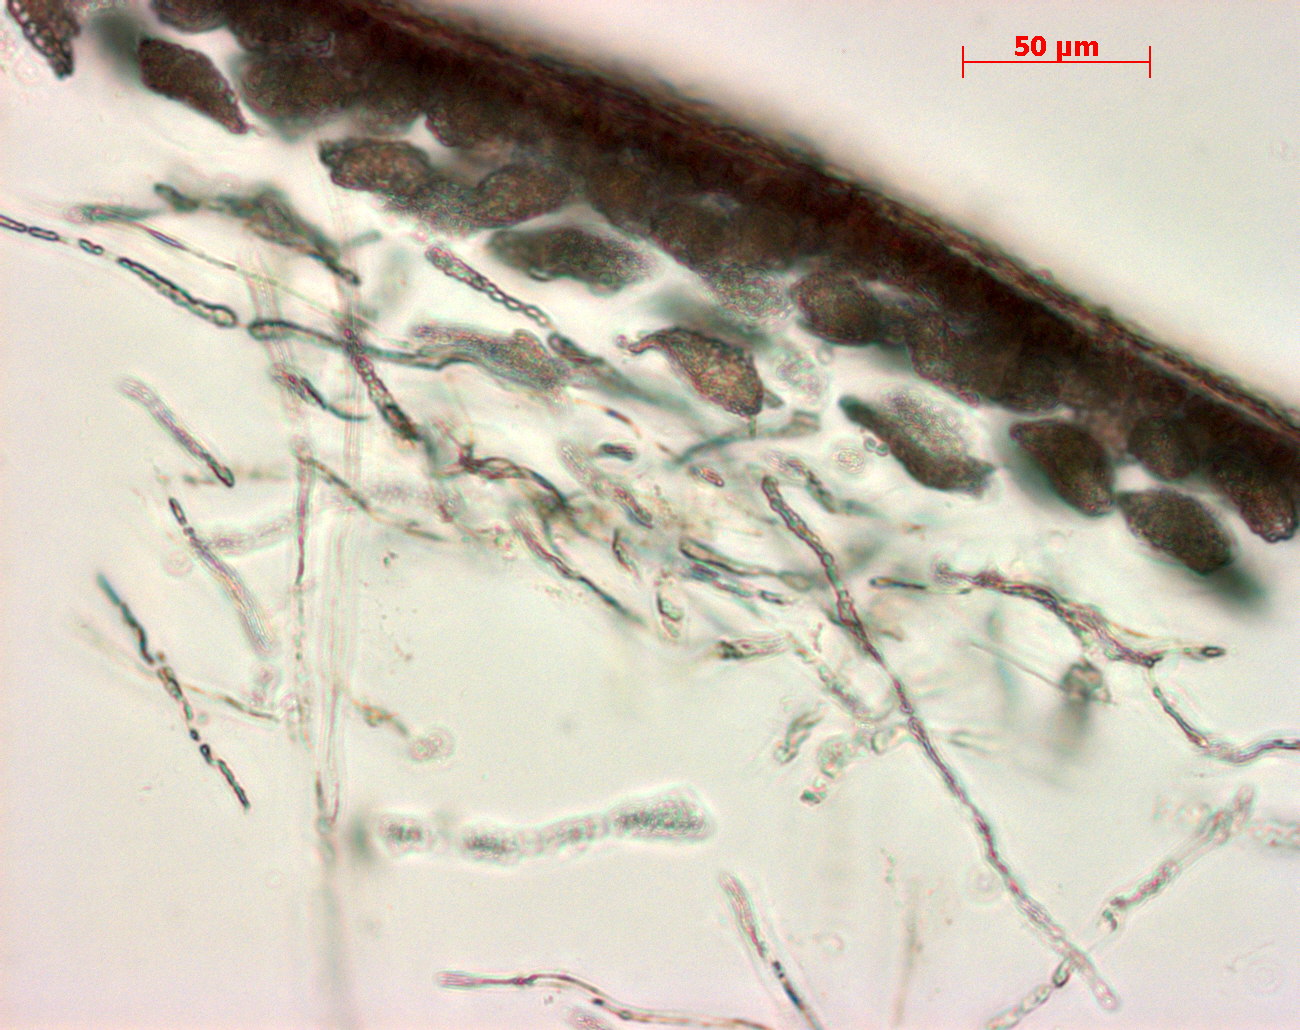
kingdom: Plantae
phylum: Rhodophyta
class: Florideophyceae
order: Gigartinales
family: Kallymeniaceae
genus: Psaromenia
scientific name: Psaromenia berggrenii
